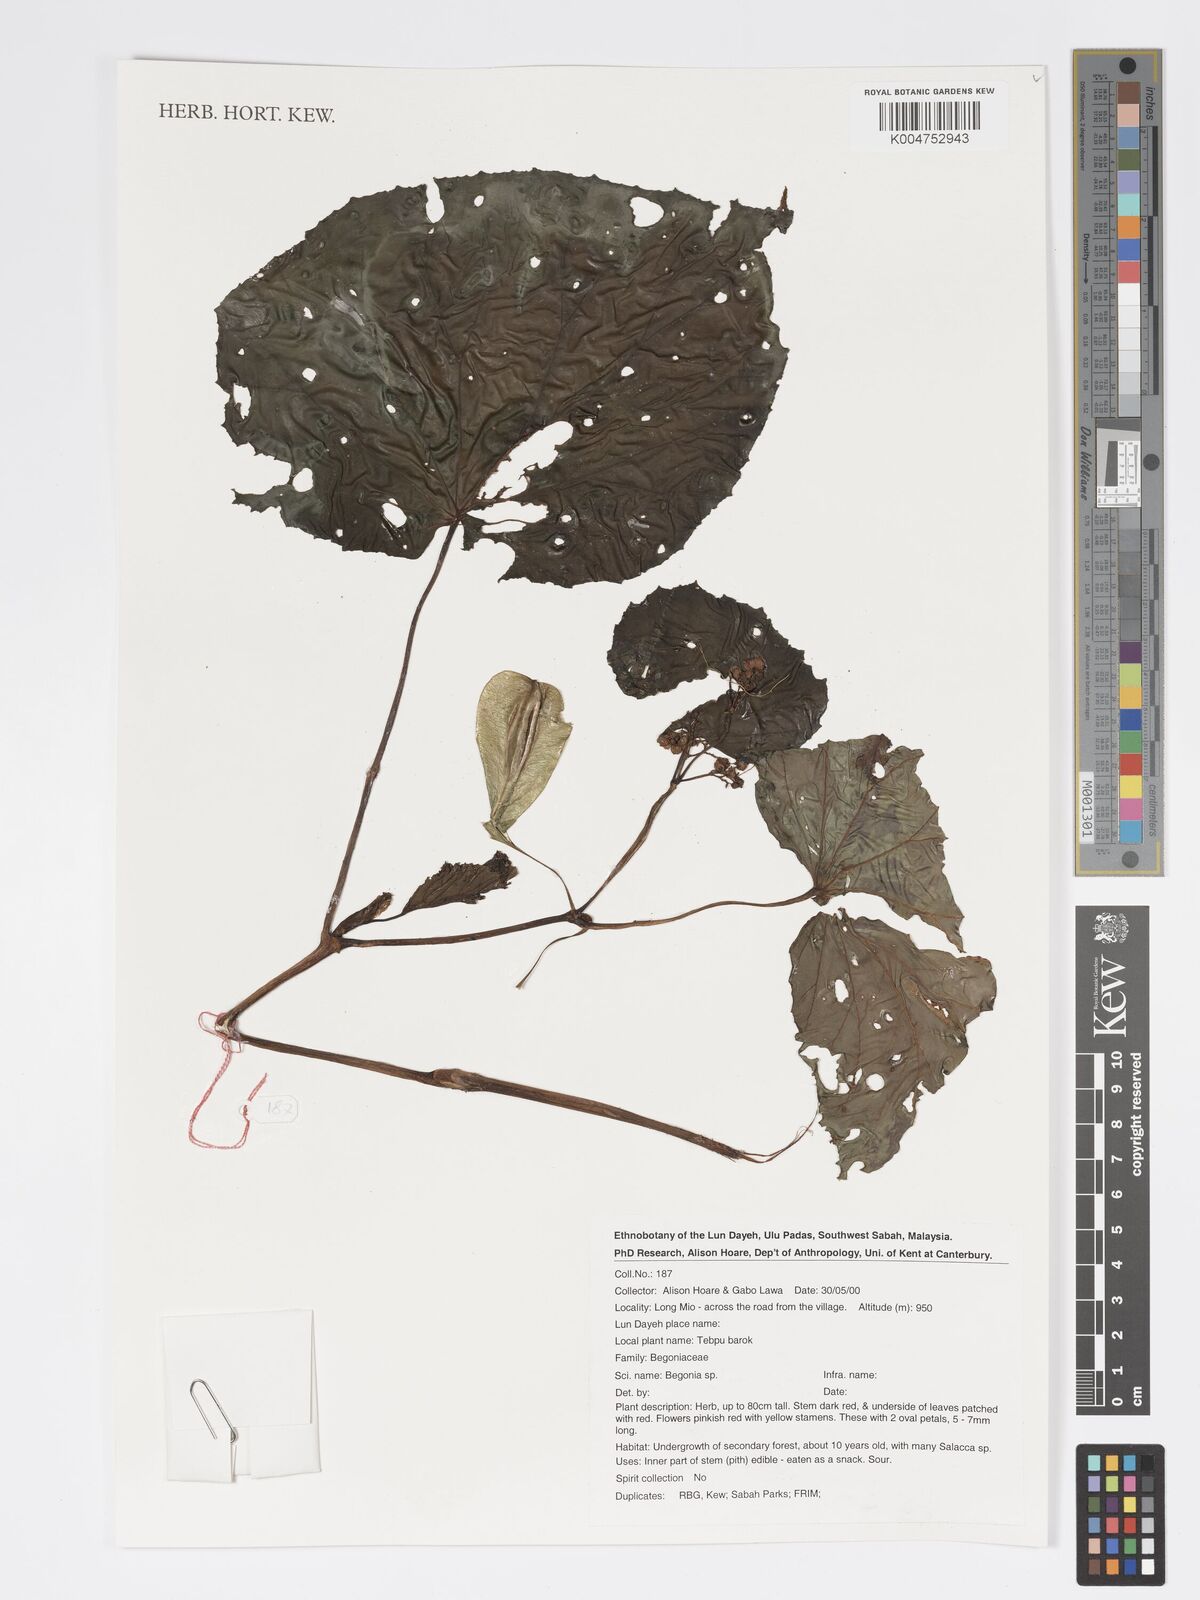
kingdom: Plantae
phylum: Tracheophyta
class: Magnoliopsida
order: Cucurbitales
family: Begoniaceae
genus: Begonia
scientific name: Begonia
